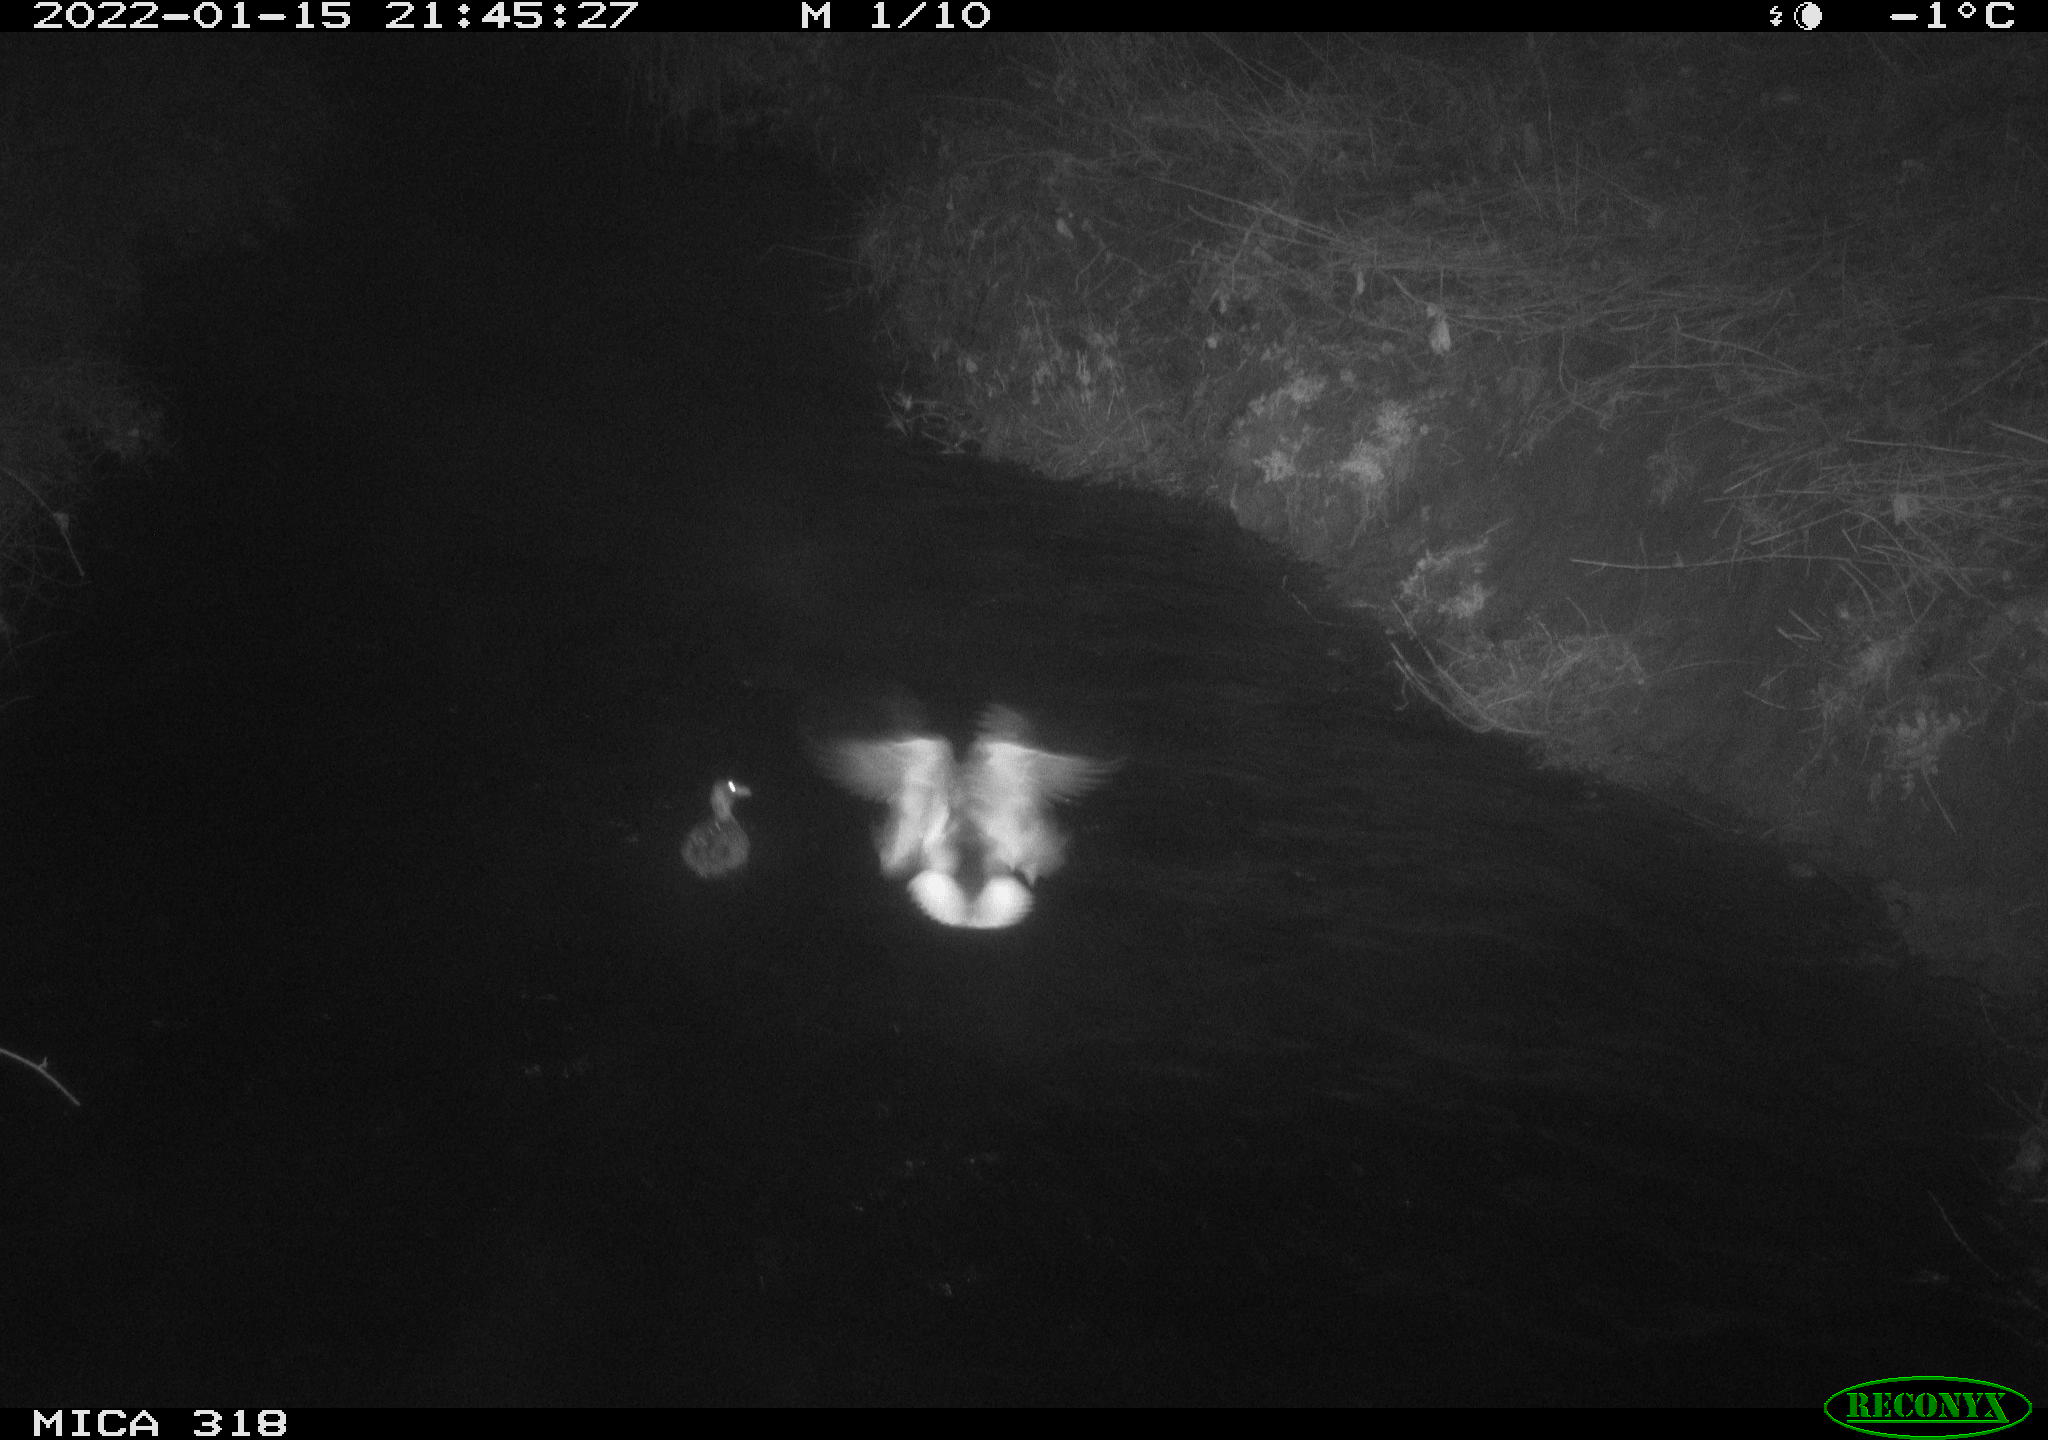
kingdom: Animalia
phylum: Chordata
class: Aves
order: Anseriformes
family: Anatidae
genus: Anas
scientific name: Anas
